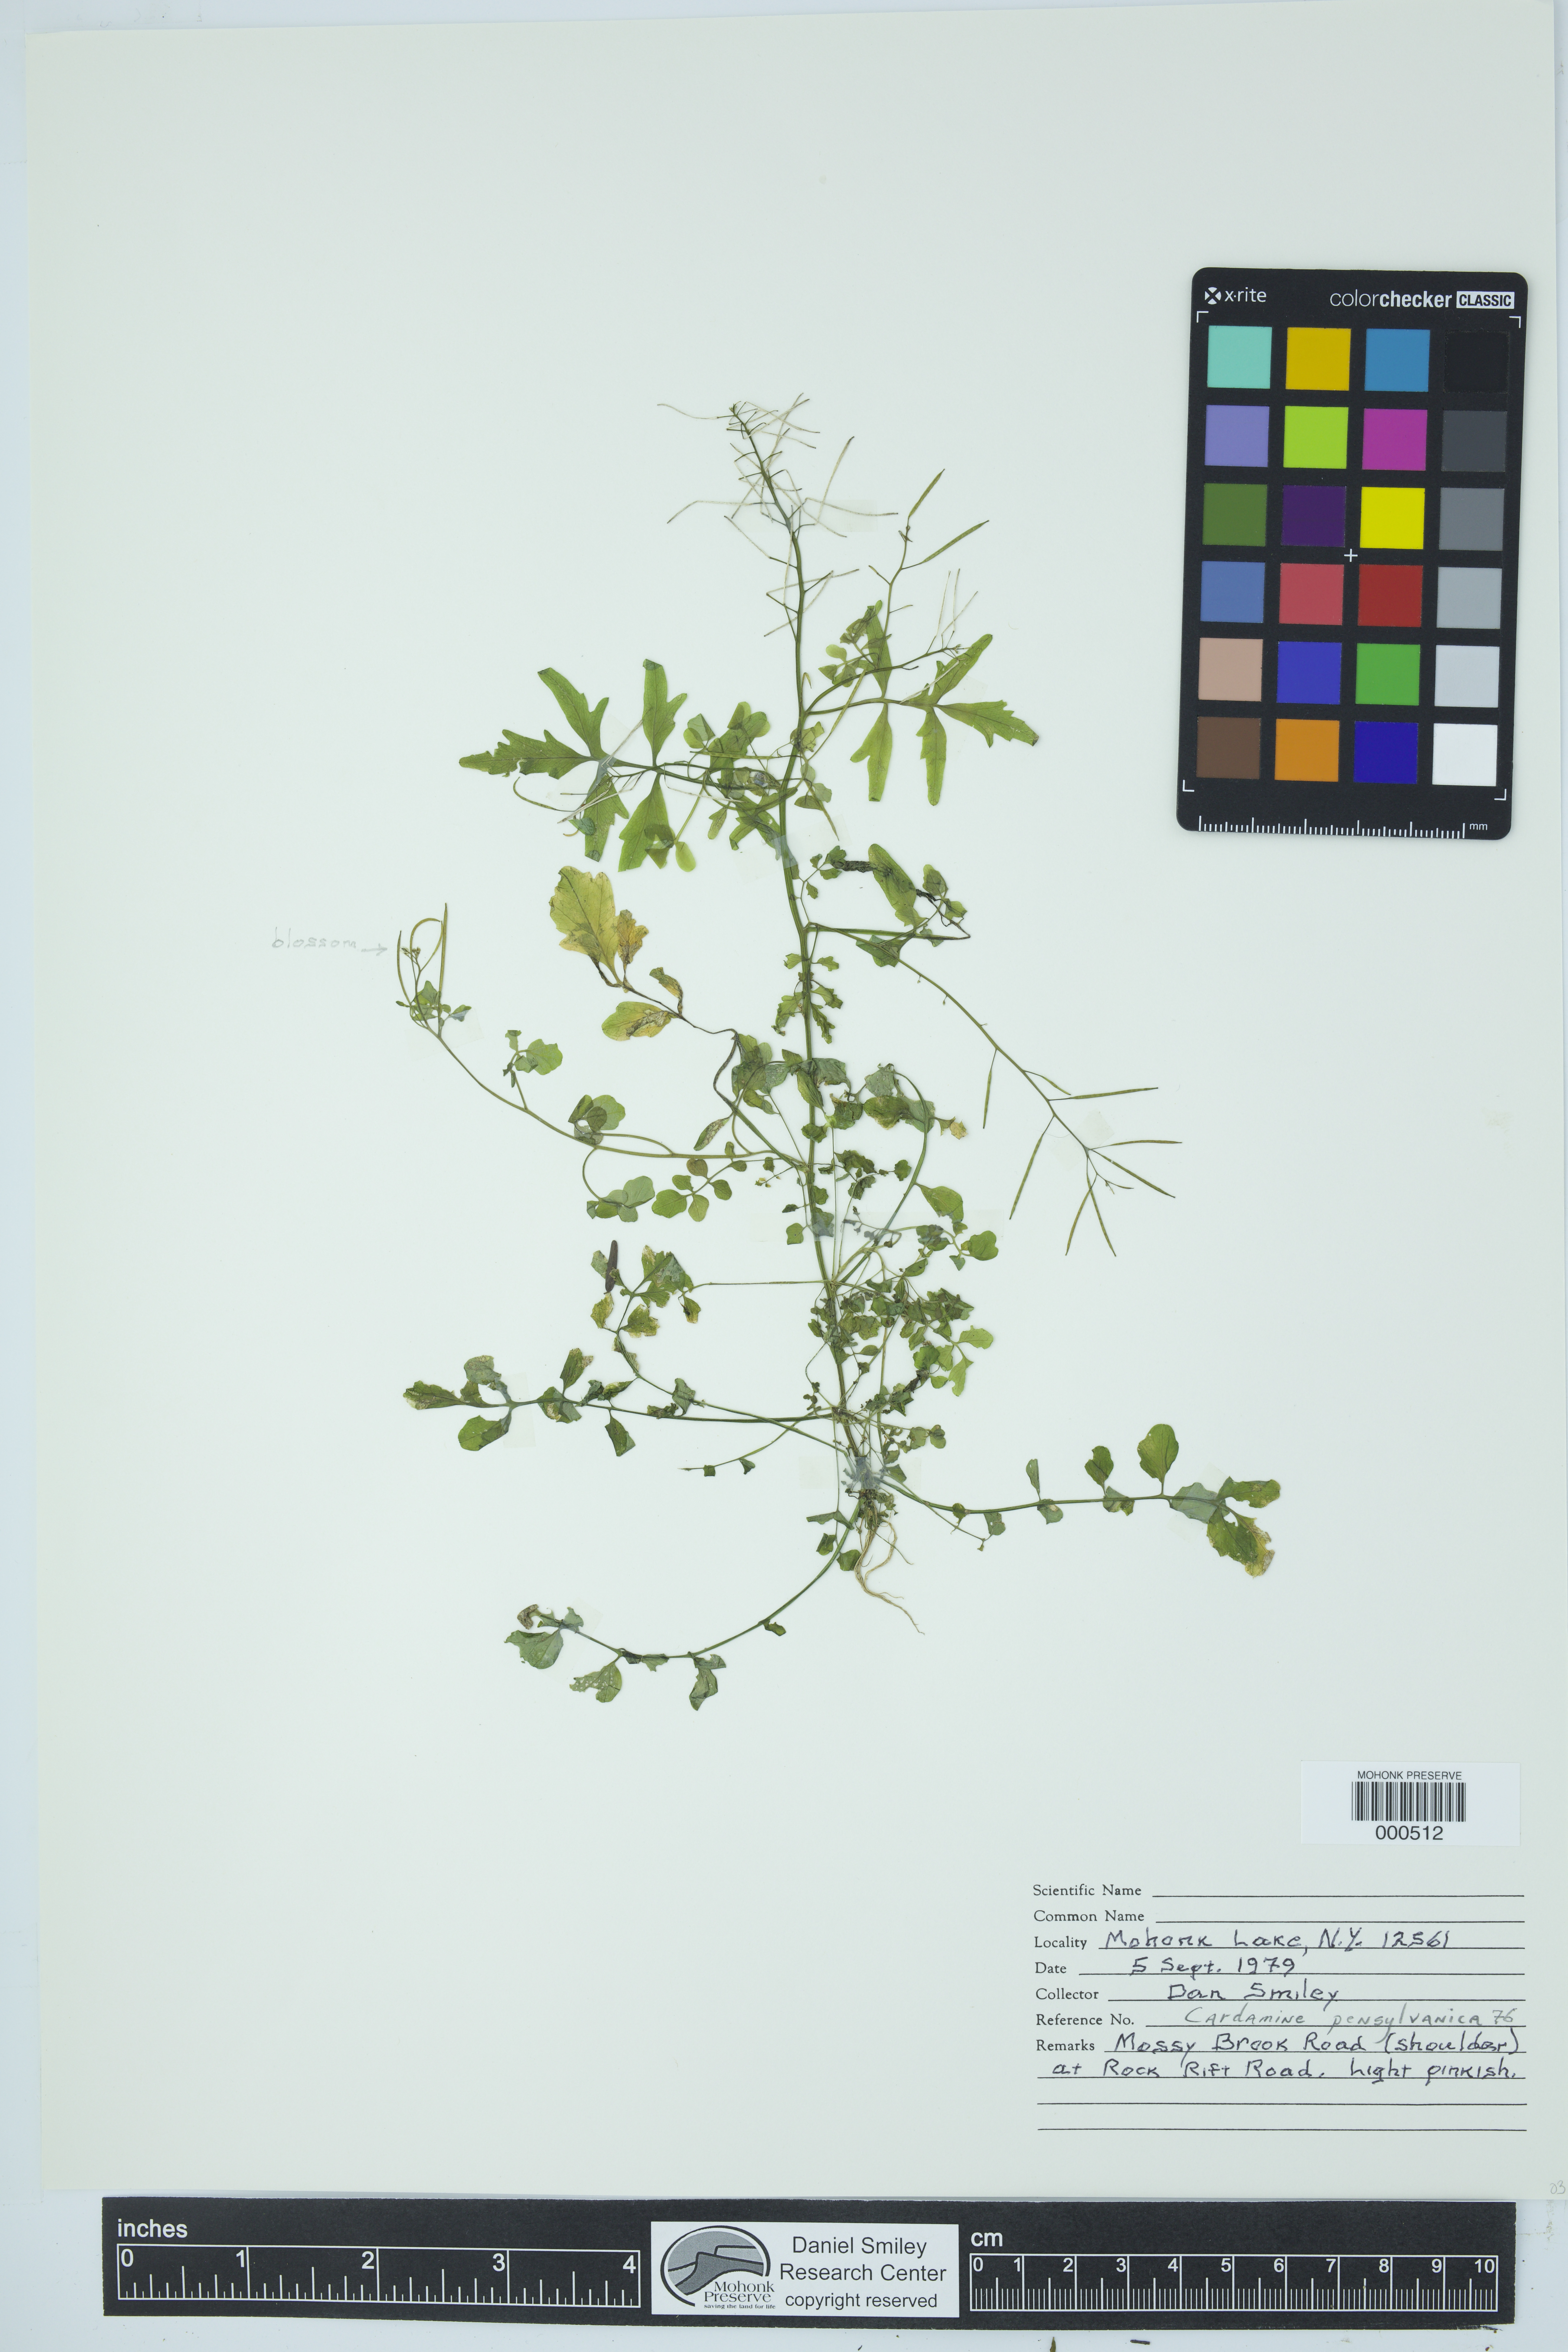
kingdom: Plantae
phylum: Tracheophyta
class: Magnoliopsida
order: Brassicales
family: Brassicaceae
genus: Cardamine
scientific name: Cardamine pensylvanica
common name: Pennsylvania bittercress
